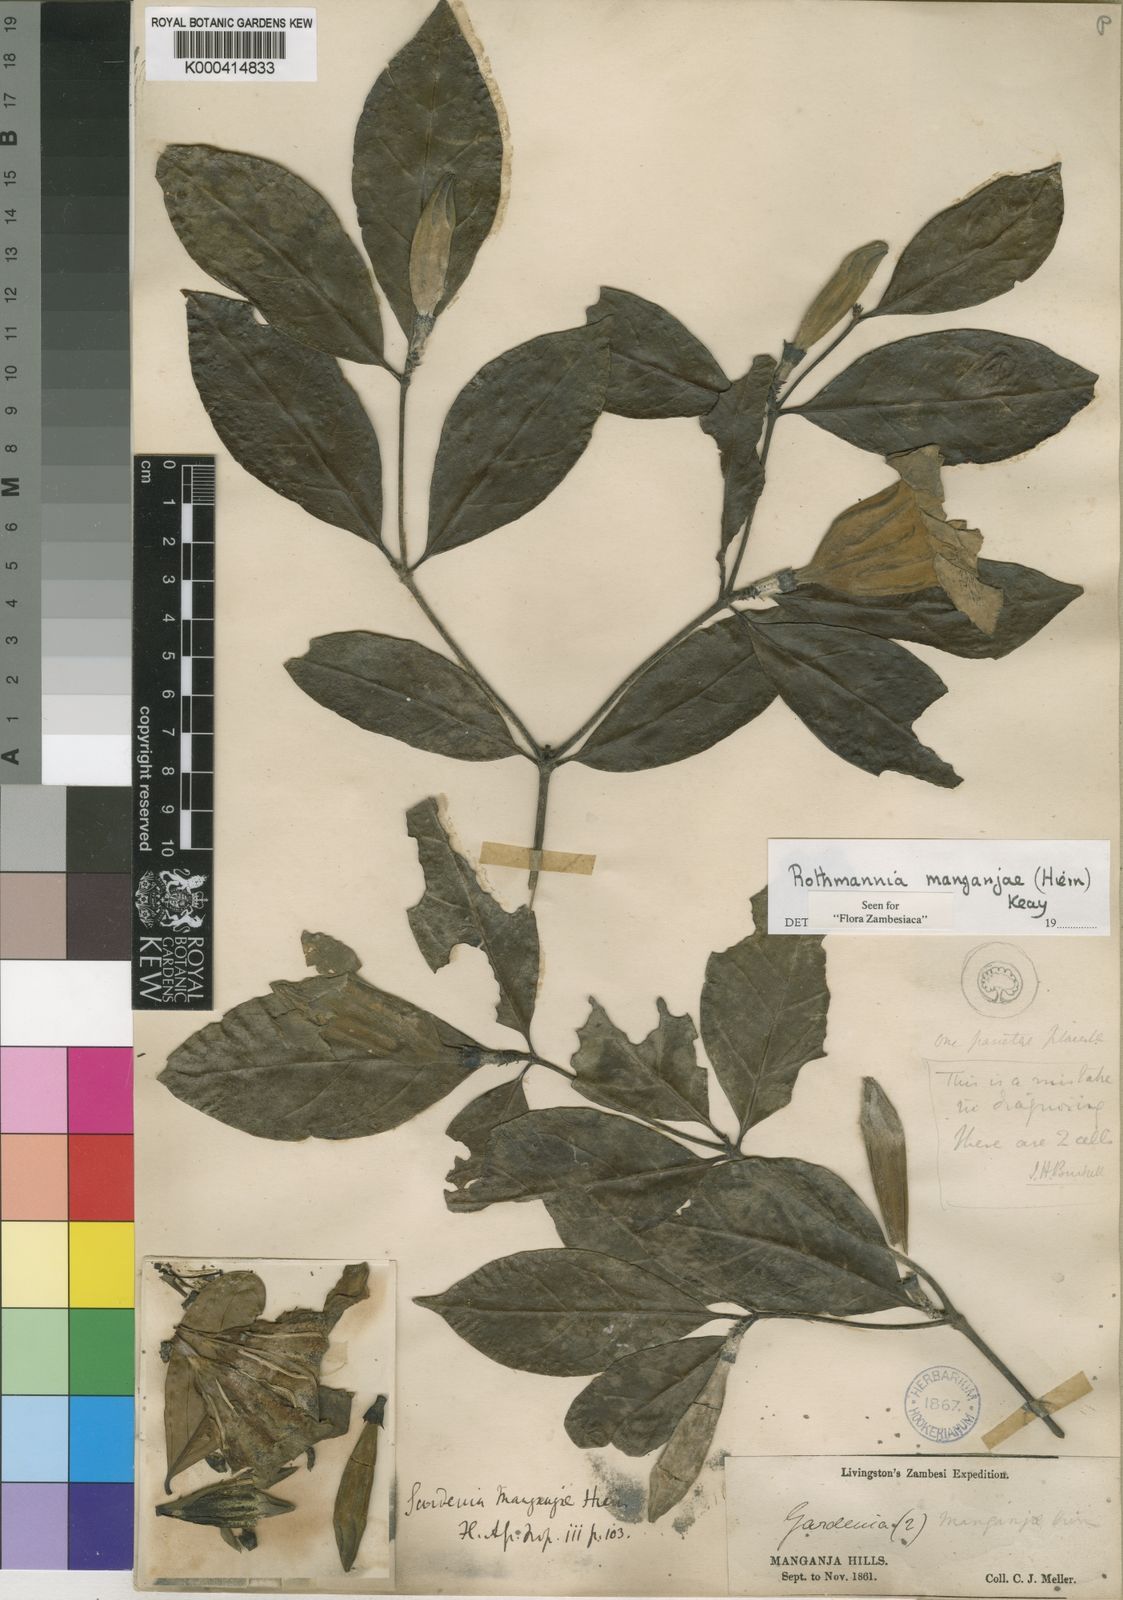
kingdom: Plantae
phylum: Tracheophyta
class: Magnoliopsida
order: Gentianales
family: Rubiaceae
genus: Rothmannia
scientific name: Rothmannia manganjae
